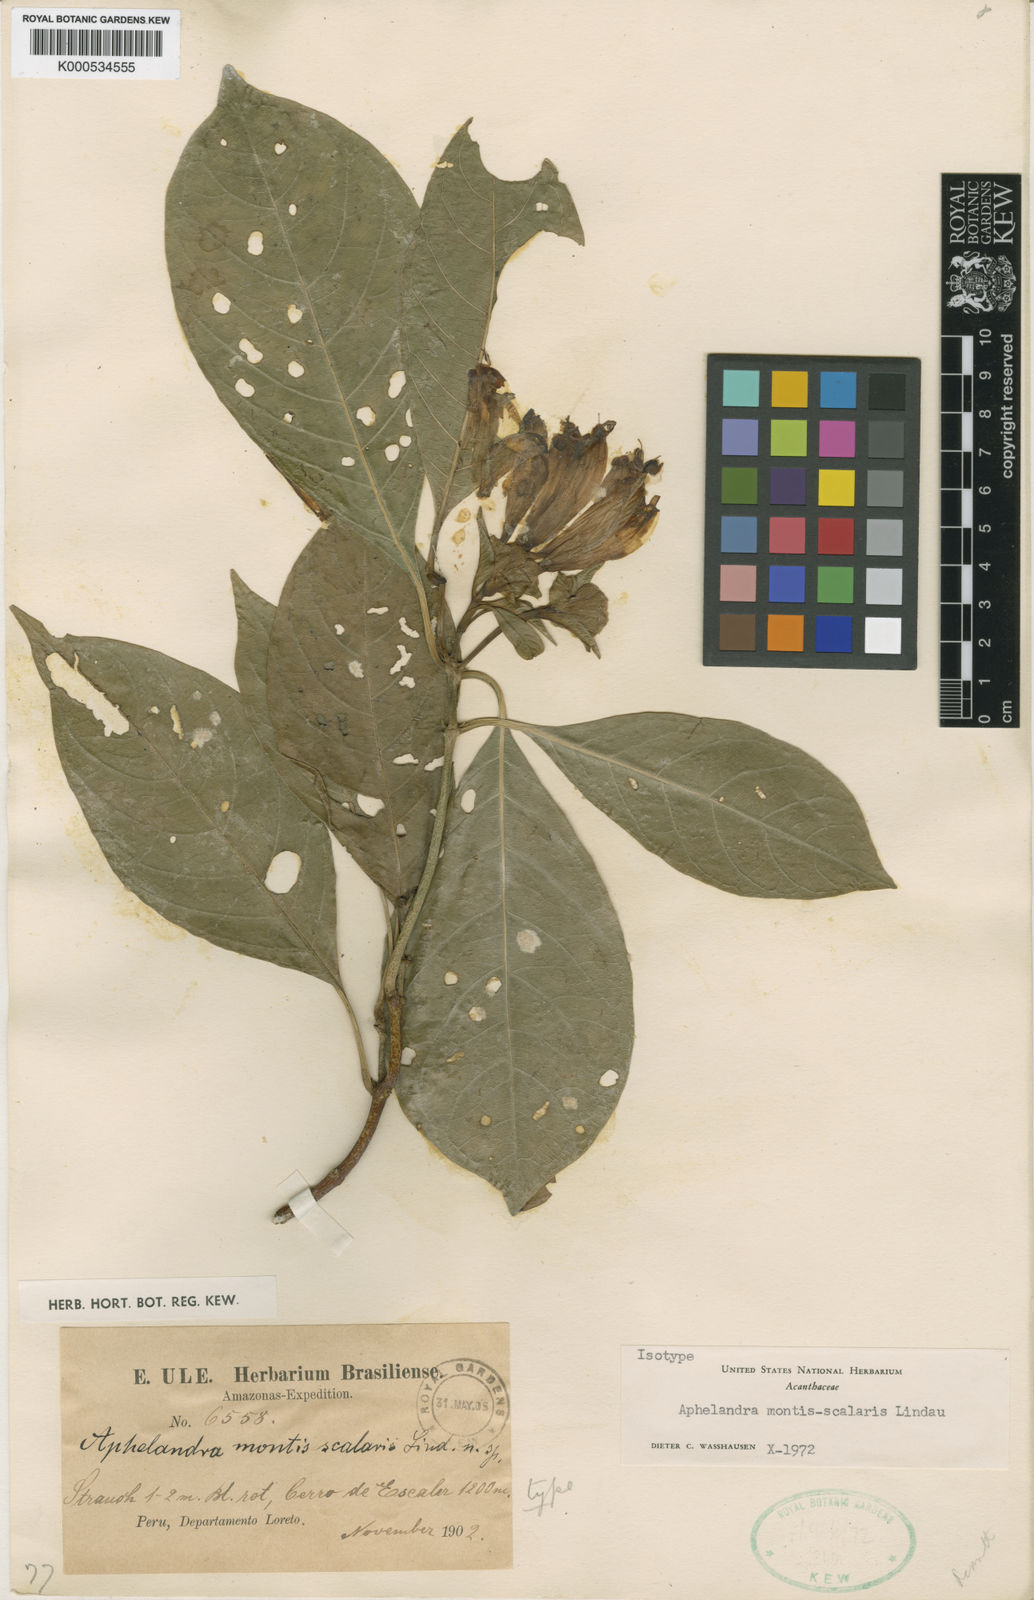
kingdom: Plantae
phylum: Tracheophyta
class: Magnoliopsida
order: Lamiales
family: Acanthaceae
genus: Aphelandra
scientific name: Aphelandra montis-scalaris
